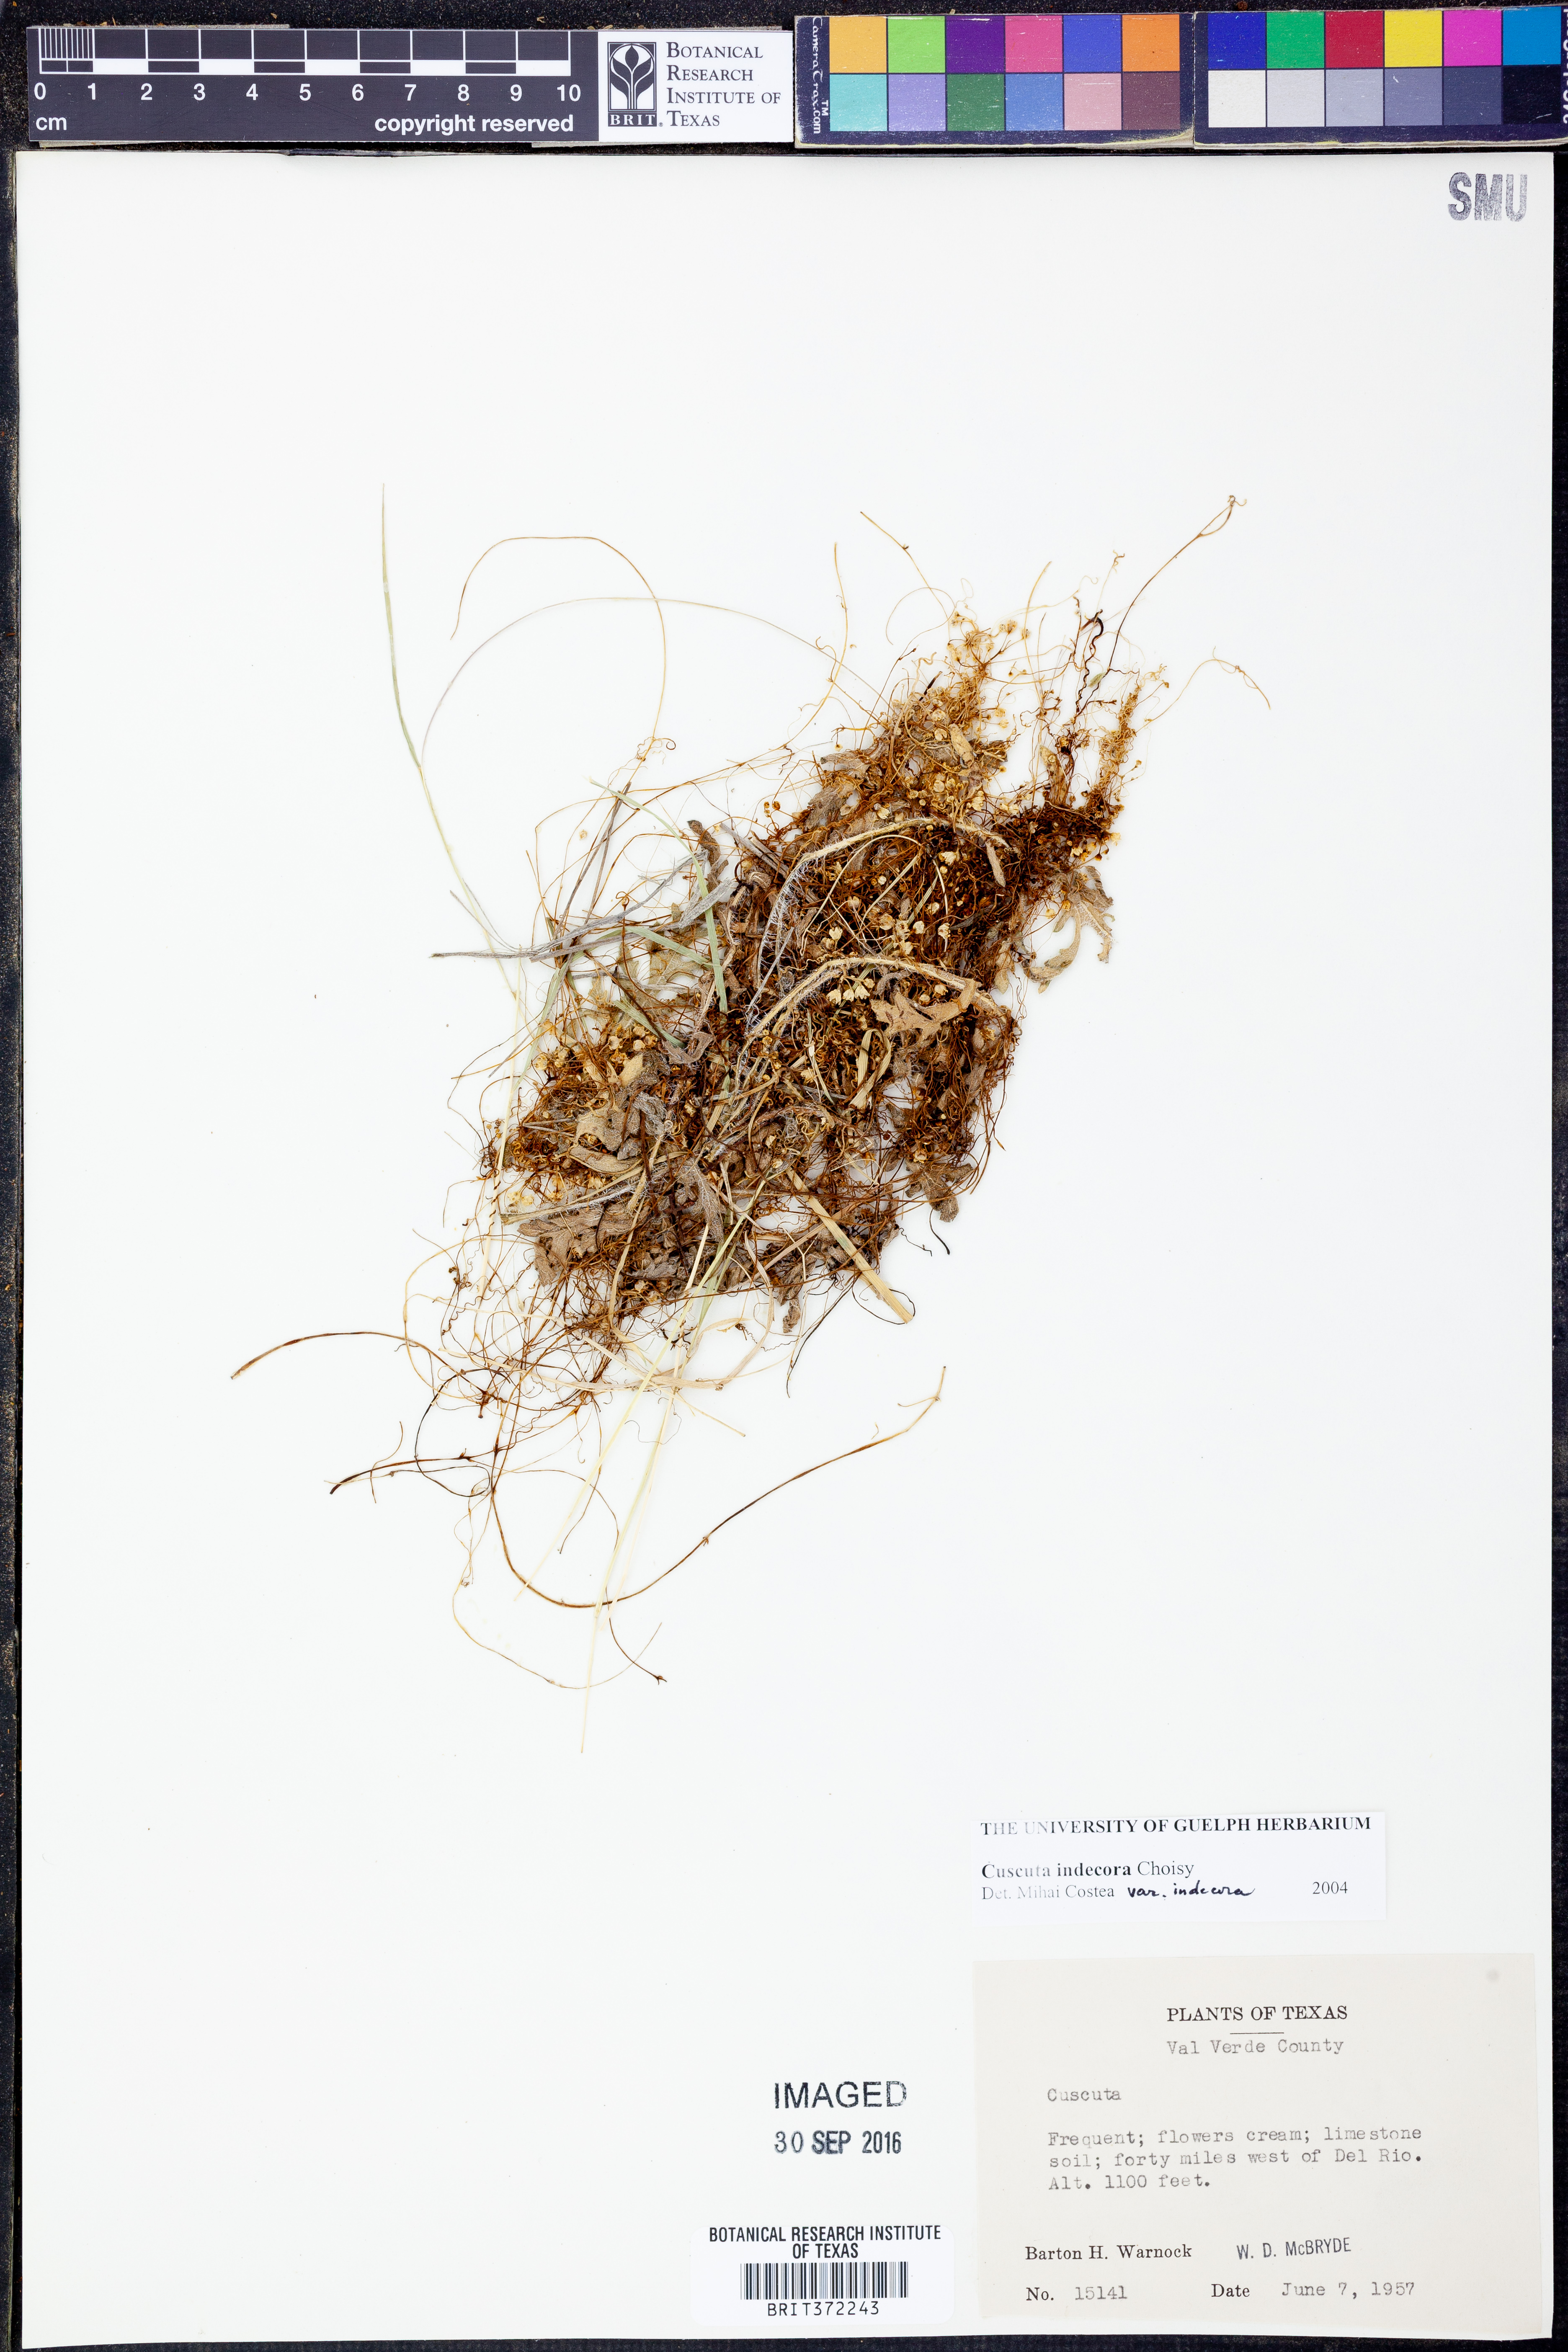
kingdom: Plantae
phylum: Tracheophyta
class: Magnoliopsida
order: Solanales
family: Convolvulaceae
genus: Cuscuta
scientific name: Cuscuta indecora
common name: Large-seed dodder
